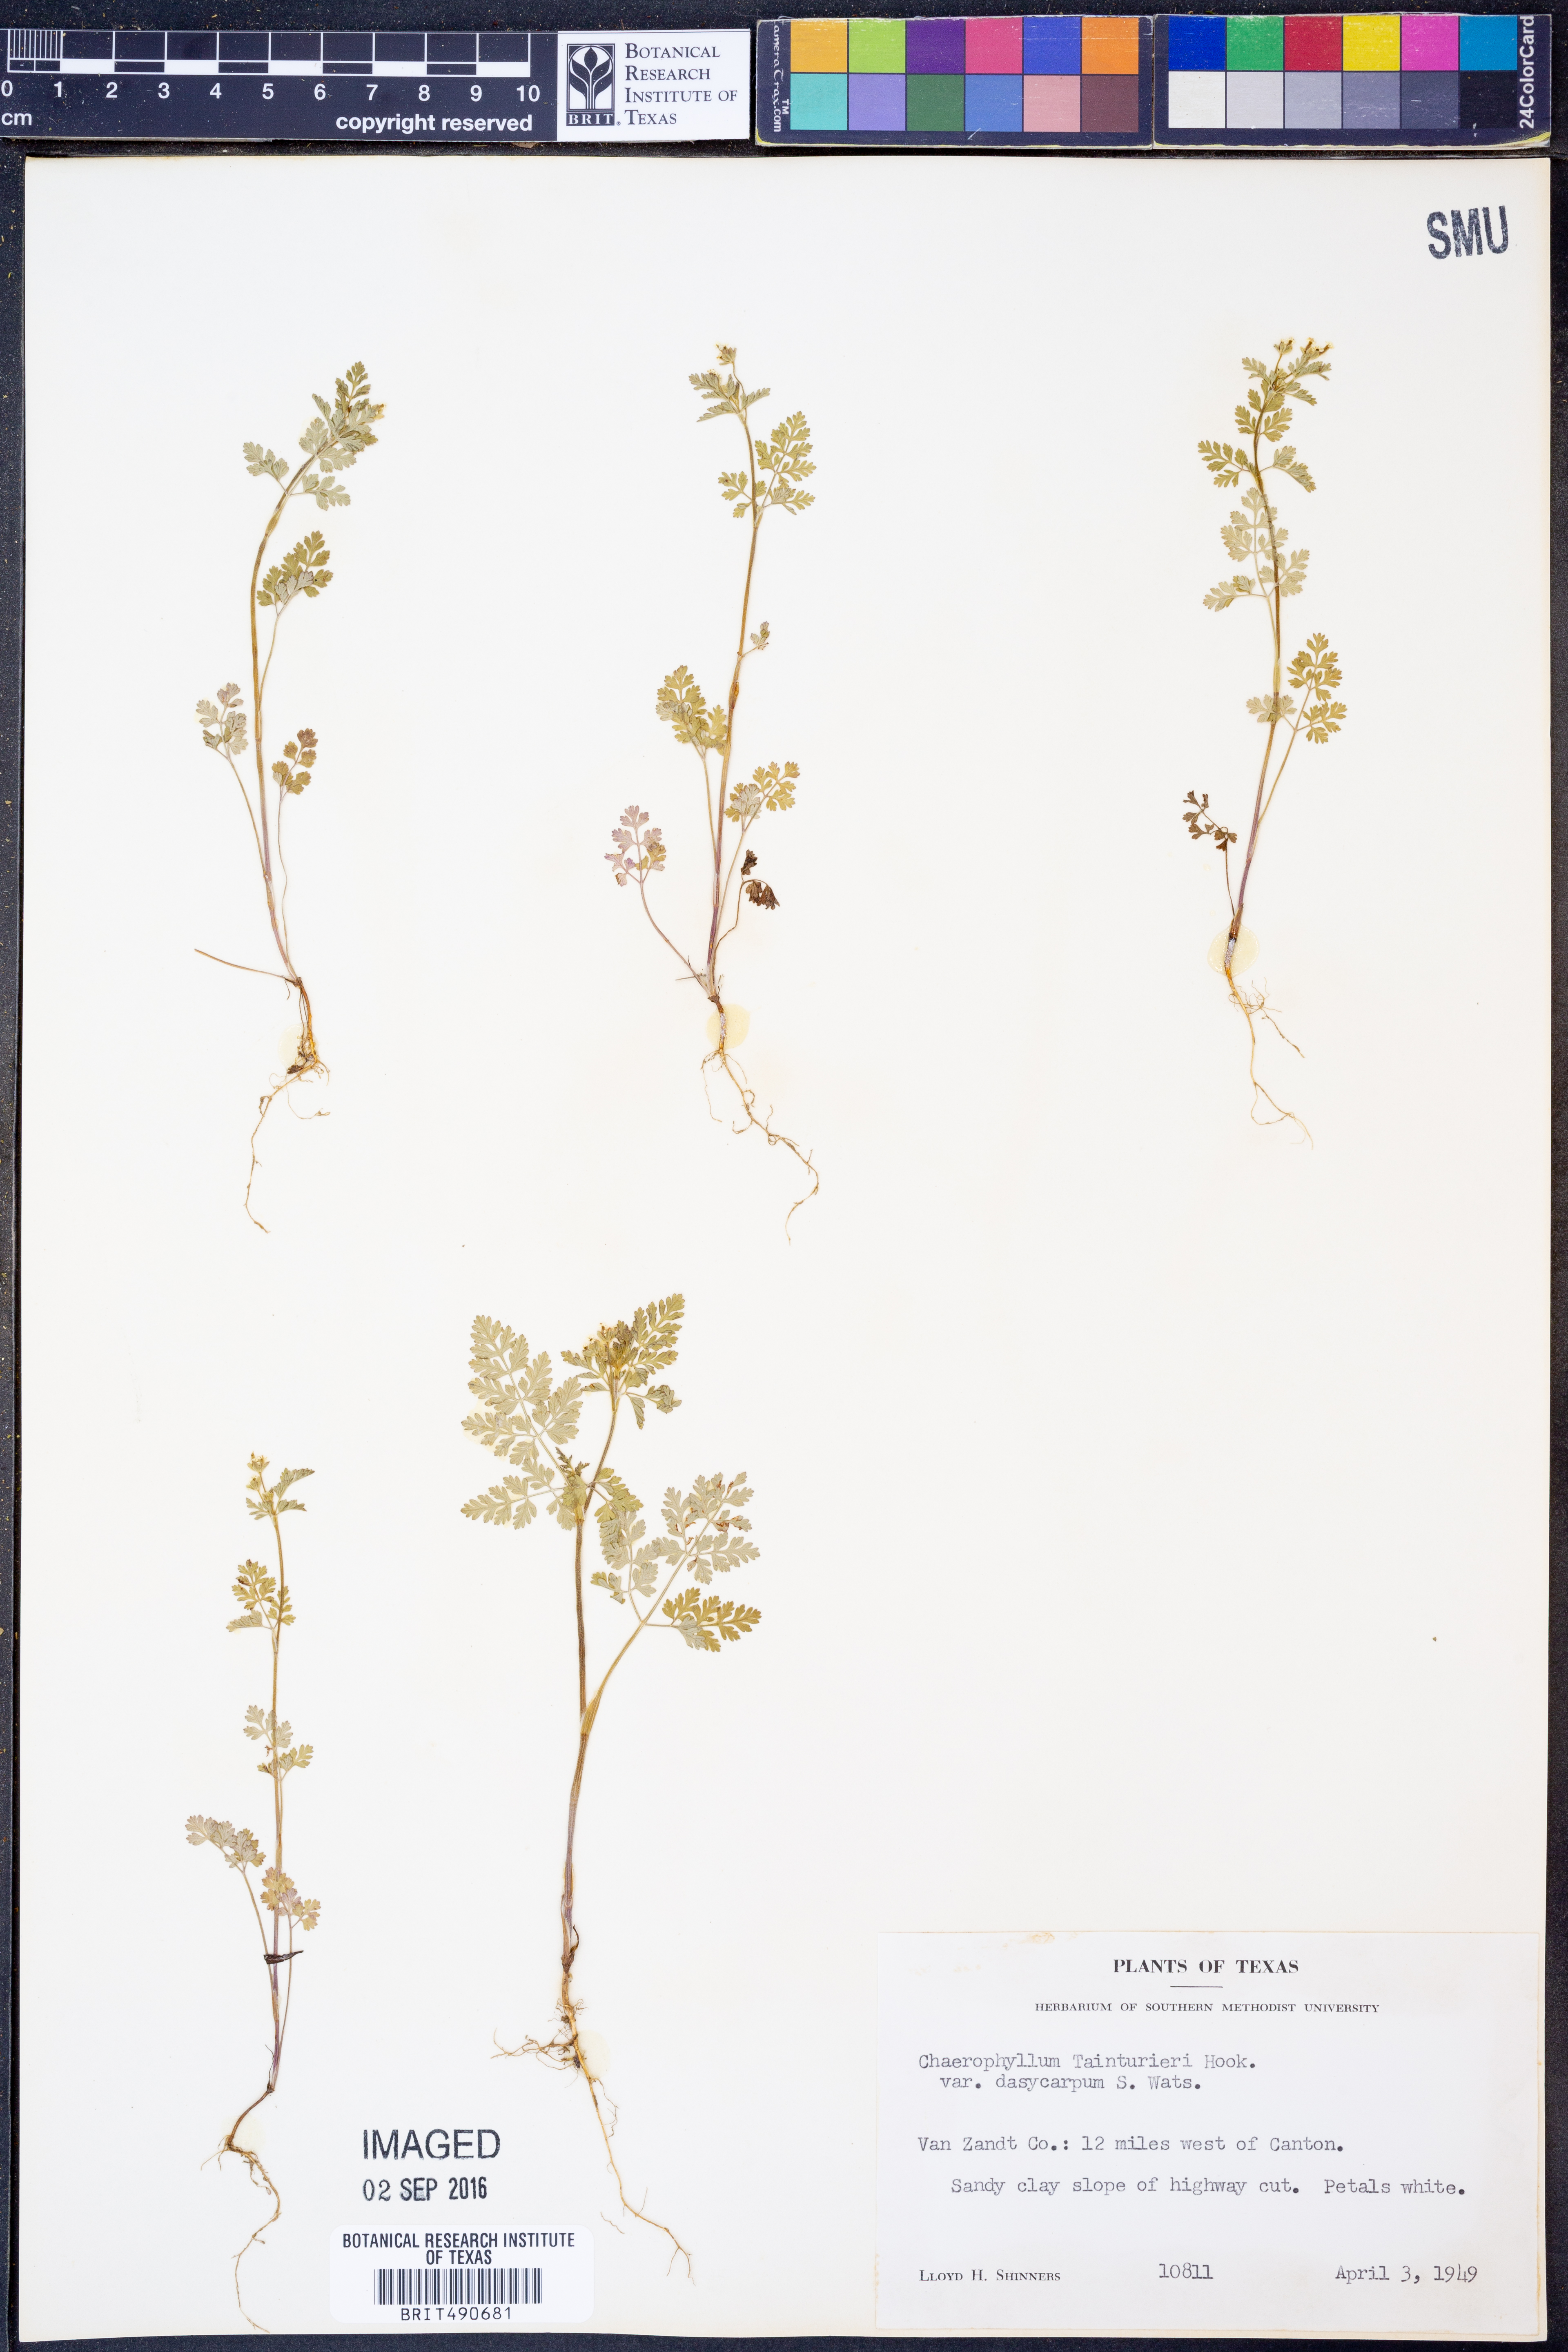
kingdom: Plantae
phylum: Tracheophyta
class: Magnoliopsida
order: Apiales
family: Apiaceae
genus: Chaerophyllum
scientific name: Chaerophyllum dasycarpum
